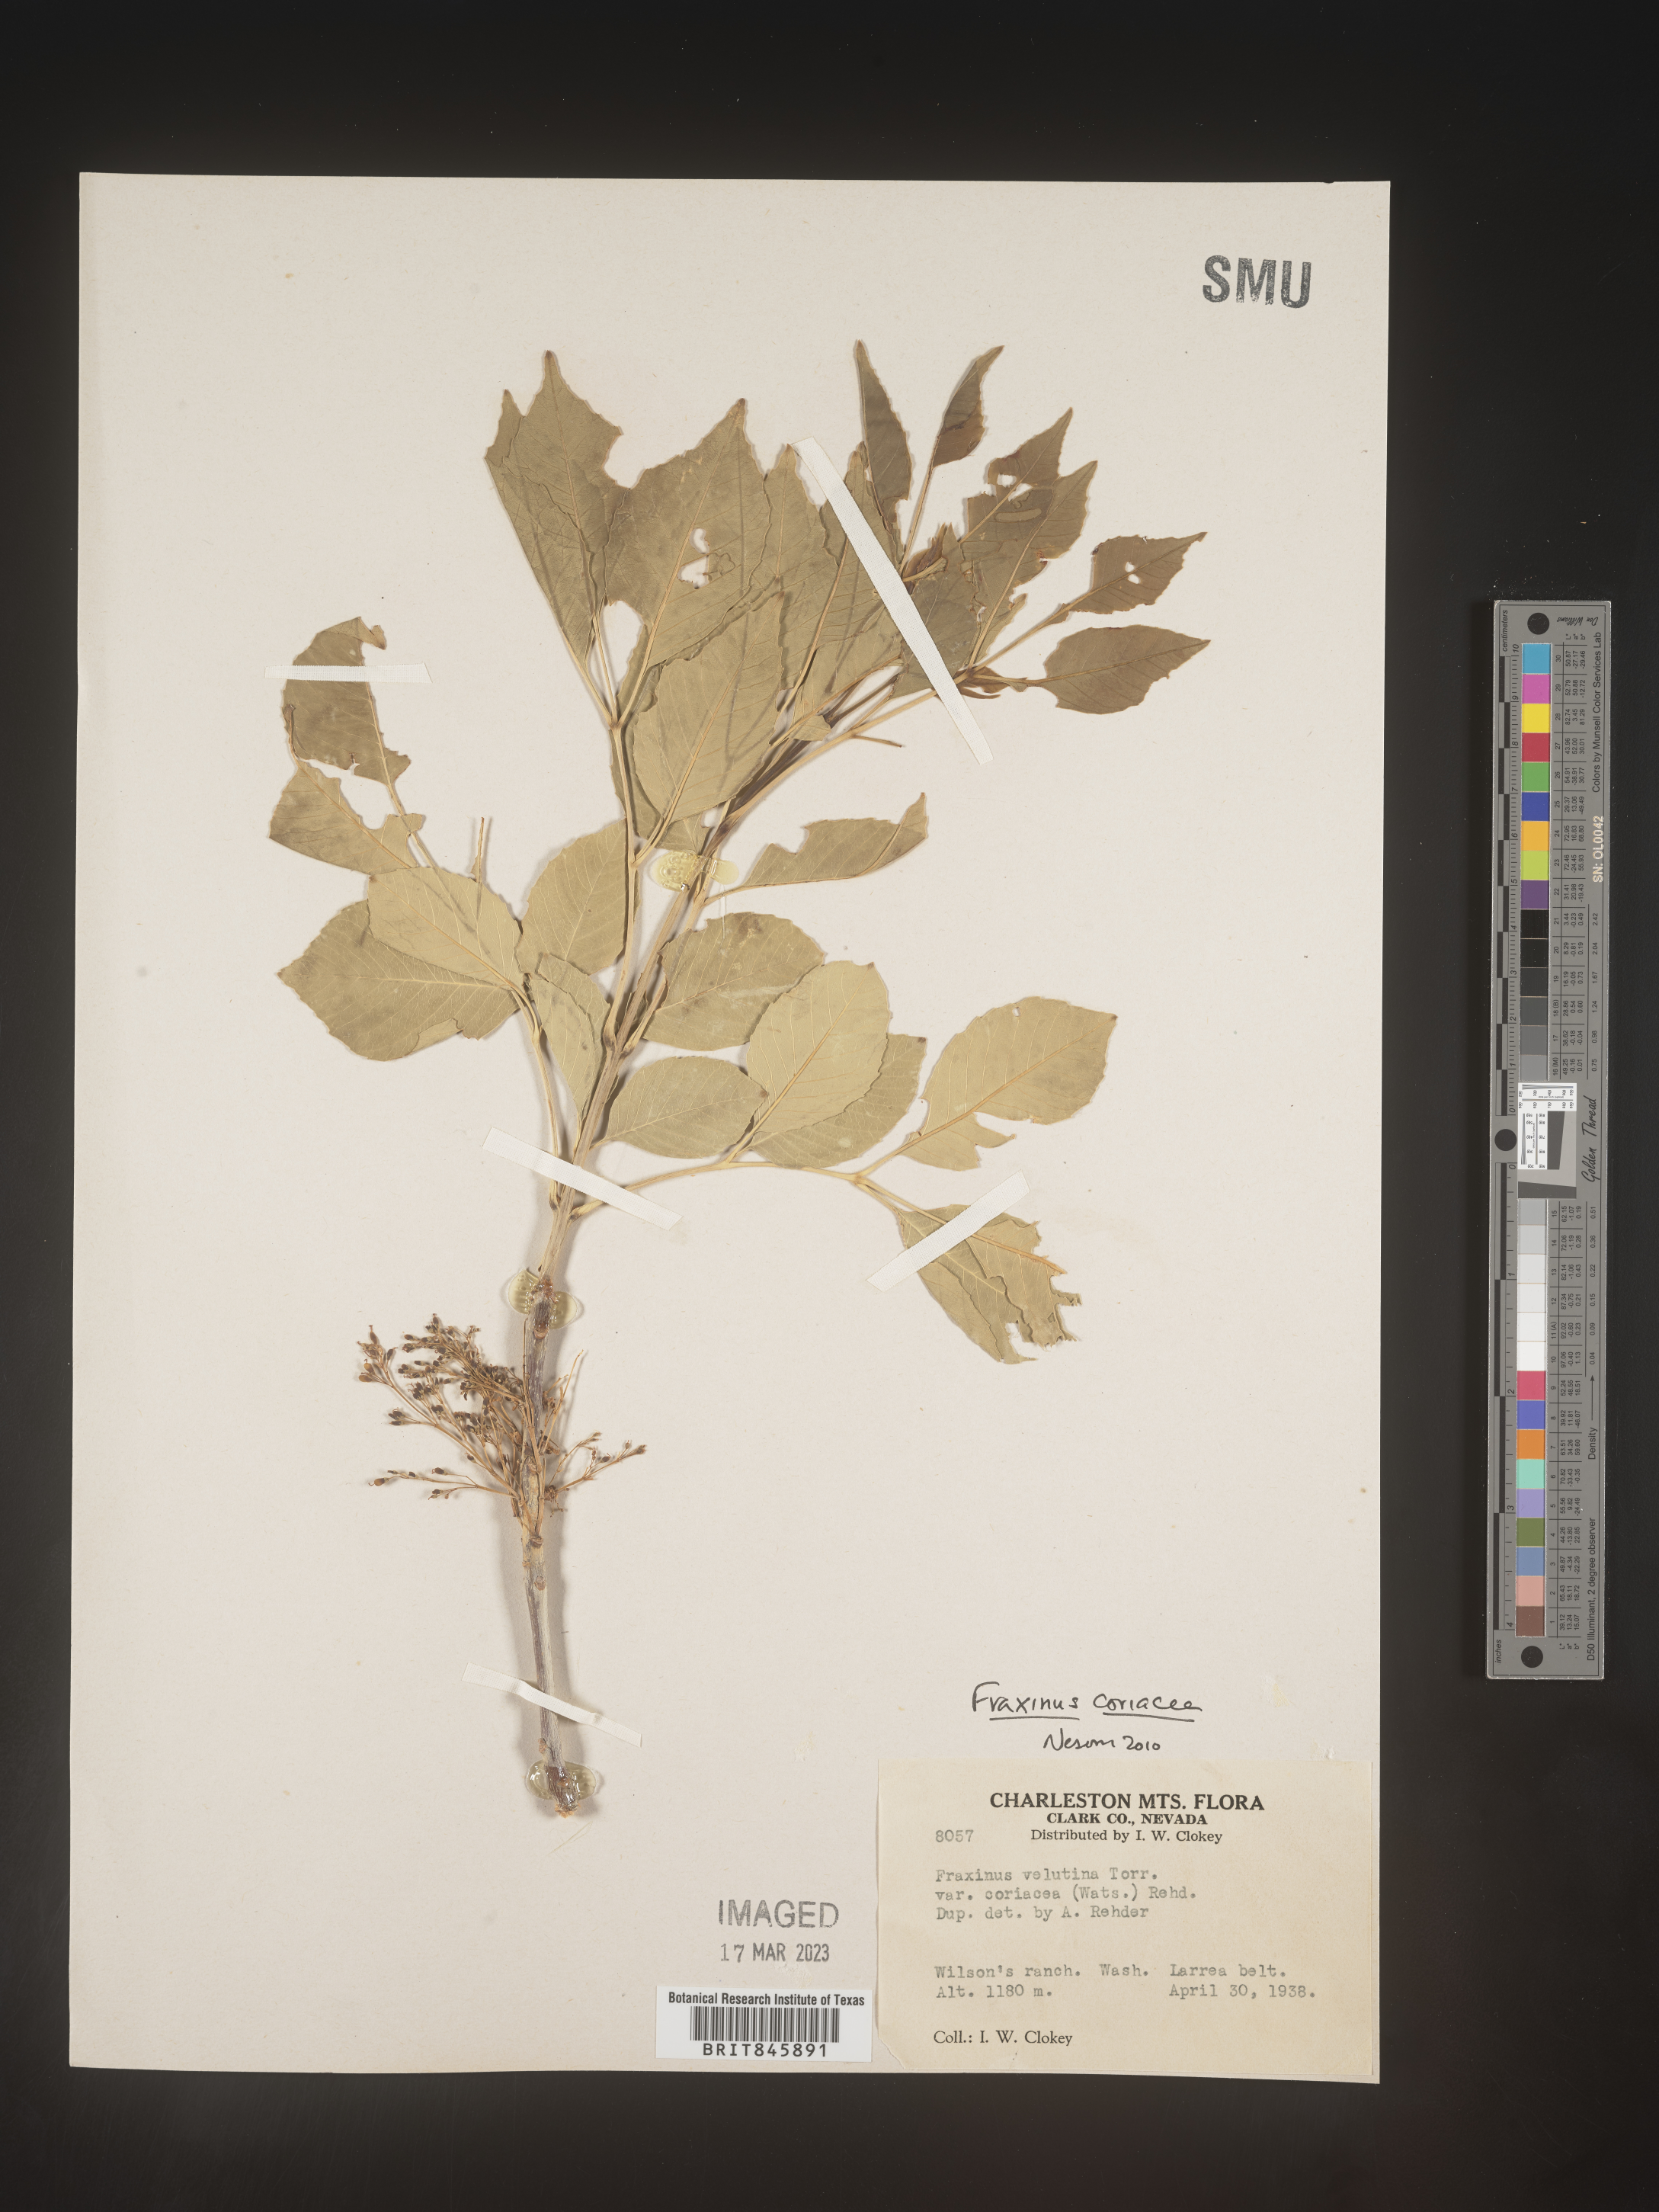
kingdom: Plantae
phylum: Tracheophyta
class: Magnoliopsida
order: Lamiales
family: Oleaceae
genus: Fraxinus
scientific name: Fraxinus velutina
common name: Arizon ash
